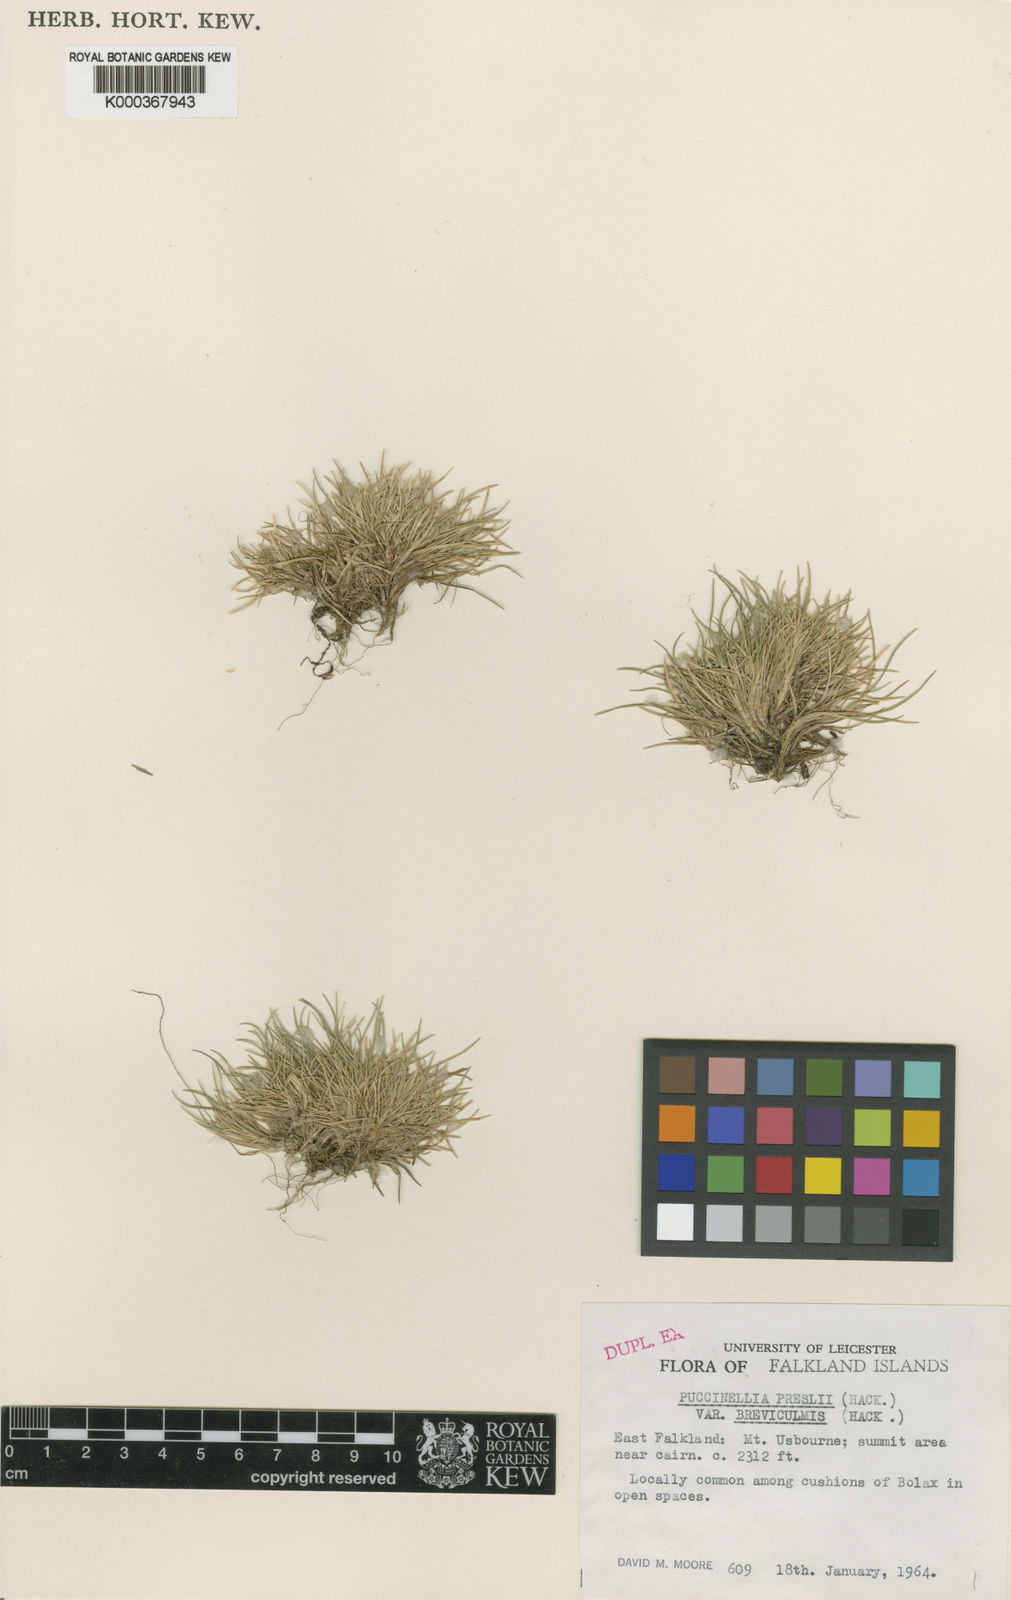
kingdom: Plantae
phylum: Tracheophyta
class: Liliopsida
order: Poales
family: Poaceae
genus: Puccinellia
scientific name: Puccinellia pusilla
